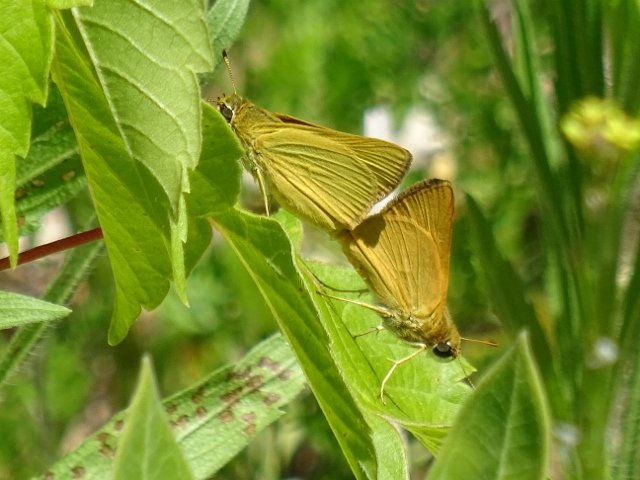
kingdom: Animalia
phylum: Arthropoda
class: Insecta
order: Lepidoptera
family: Hesperiidae
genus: Atrytone
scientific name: Atrytone delaware
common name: Delaware Skipper
